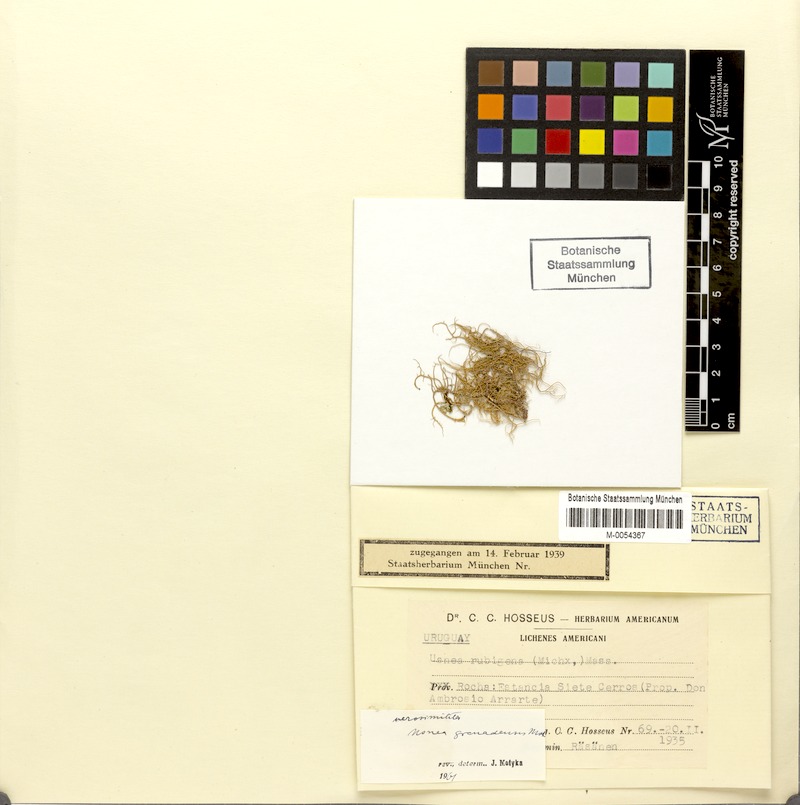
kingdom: Fungi
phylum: Ascomycota
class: Lecanoromycetes
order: Lecanorales
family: Parmeliaceae
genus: Usnea
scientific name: Usnea granadensis
